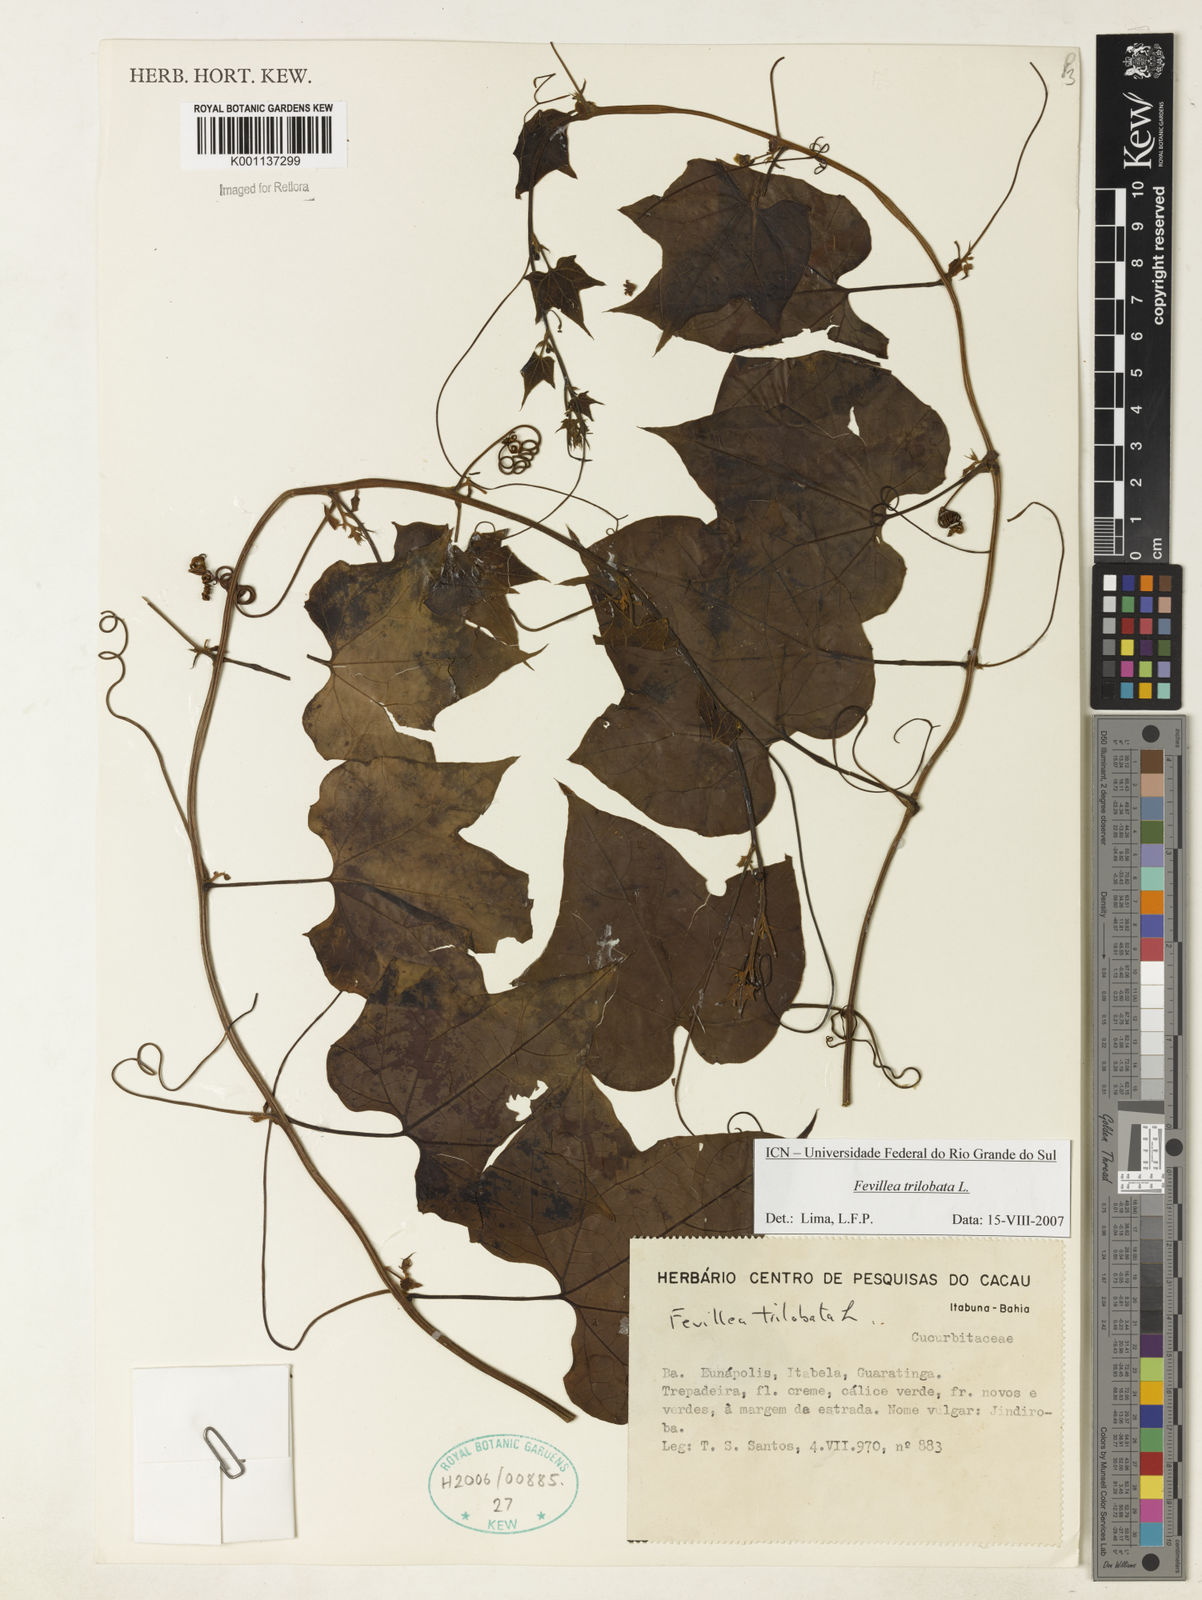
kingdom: Plantae
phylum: Tracheophyta
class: Magnoliopsida
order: Cucurbitales
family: Cucurbitaceae
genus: Fevillea
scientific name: Fevillea trilobata
